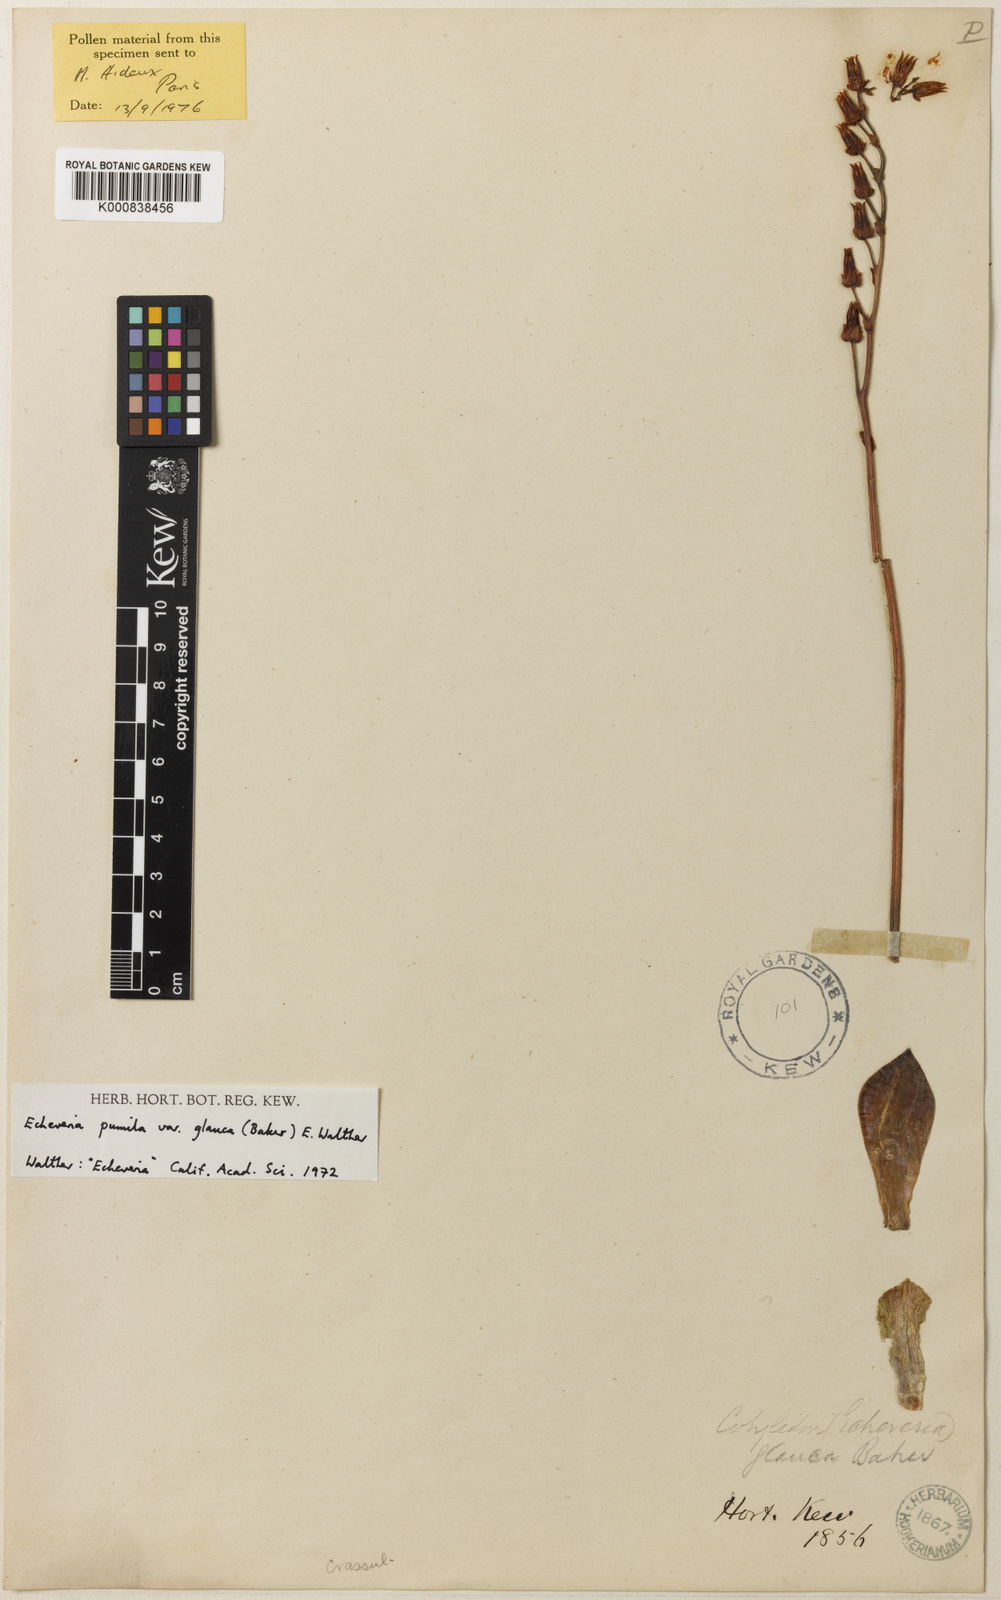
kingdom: Plantae
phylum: Tracheophyta
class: Magnoliopsida
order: Saxifragales
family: Crassulaceae
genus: Echeveria
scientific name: Echeveria secunda
